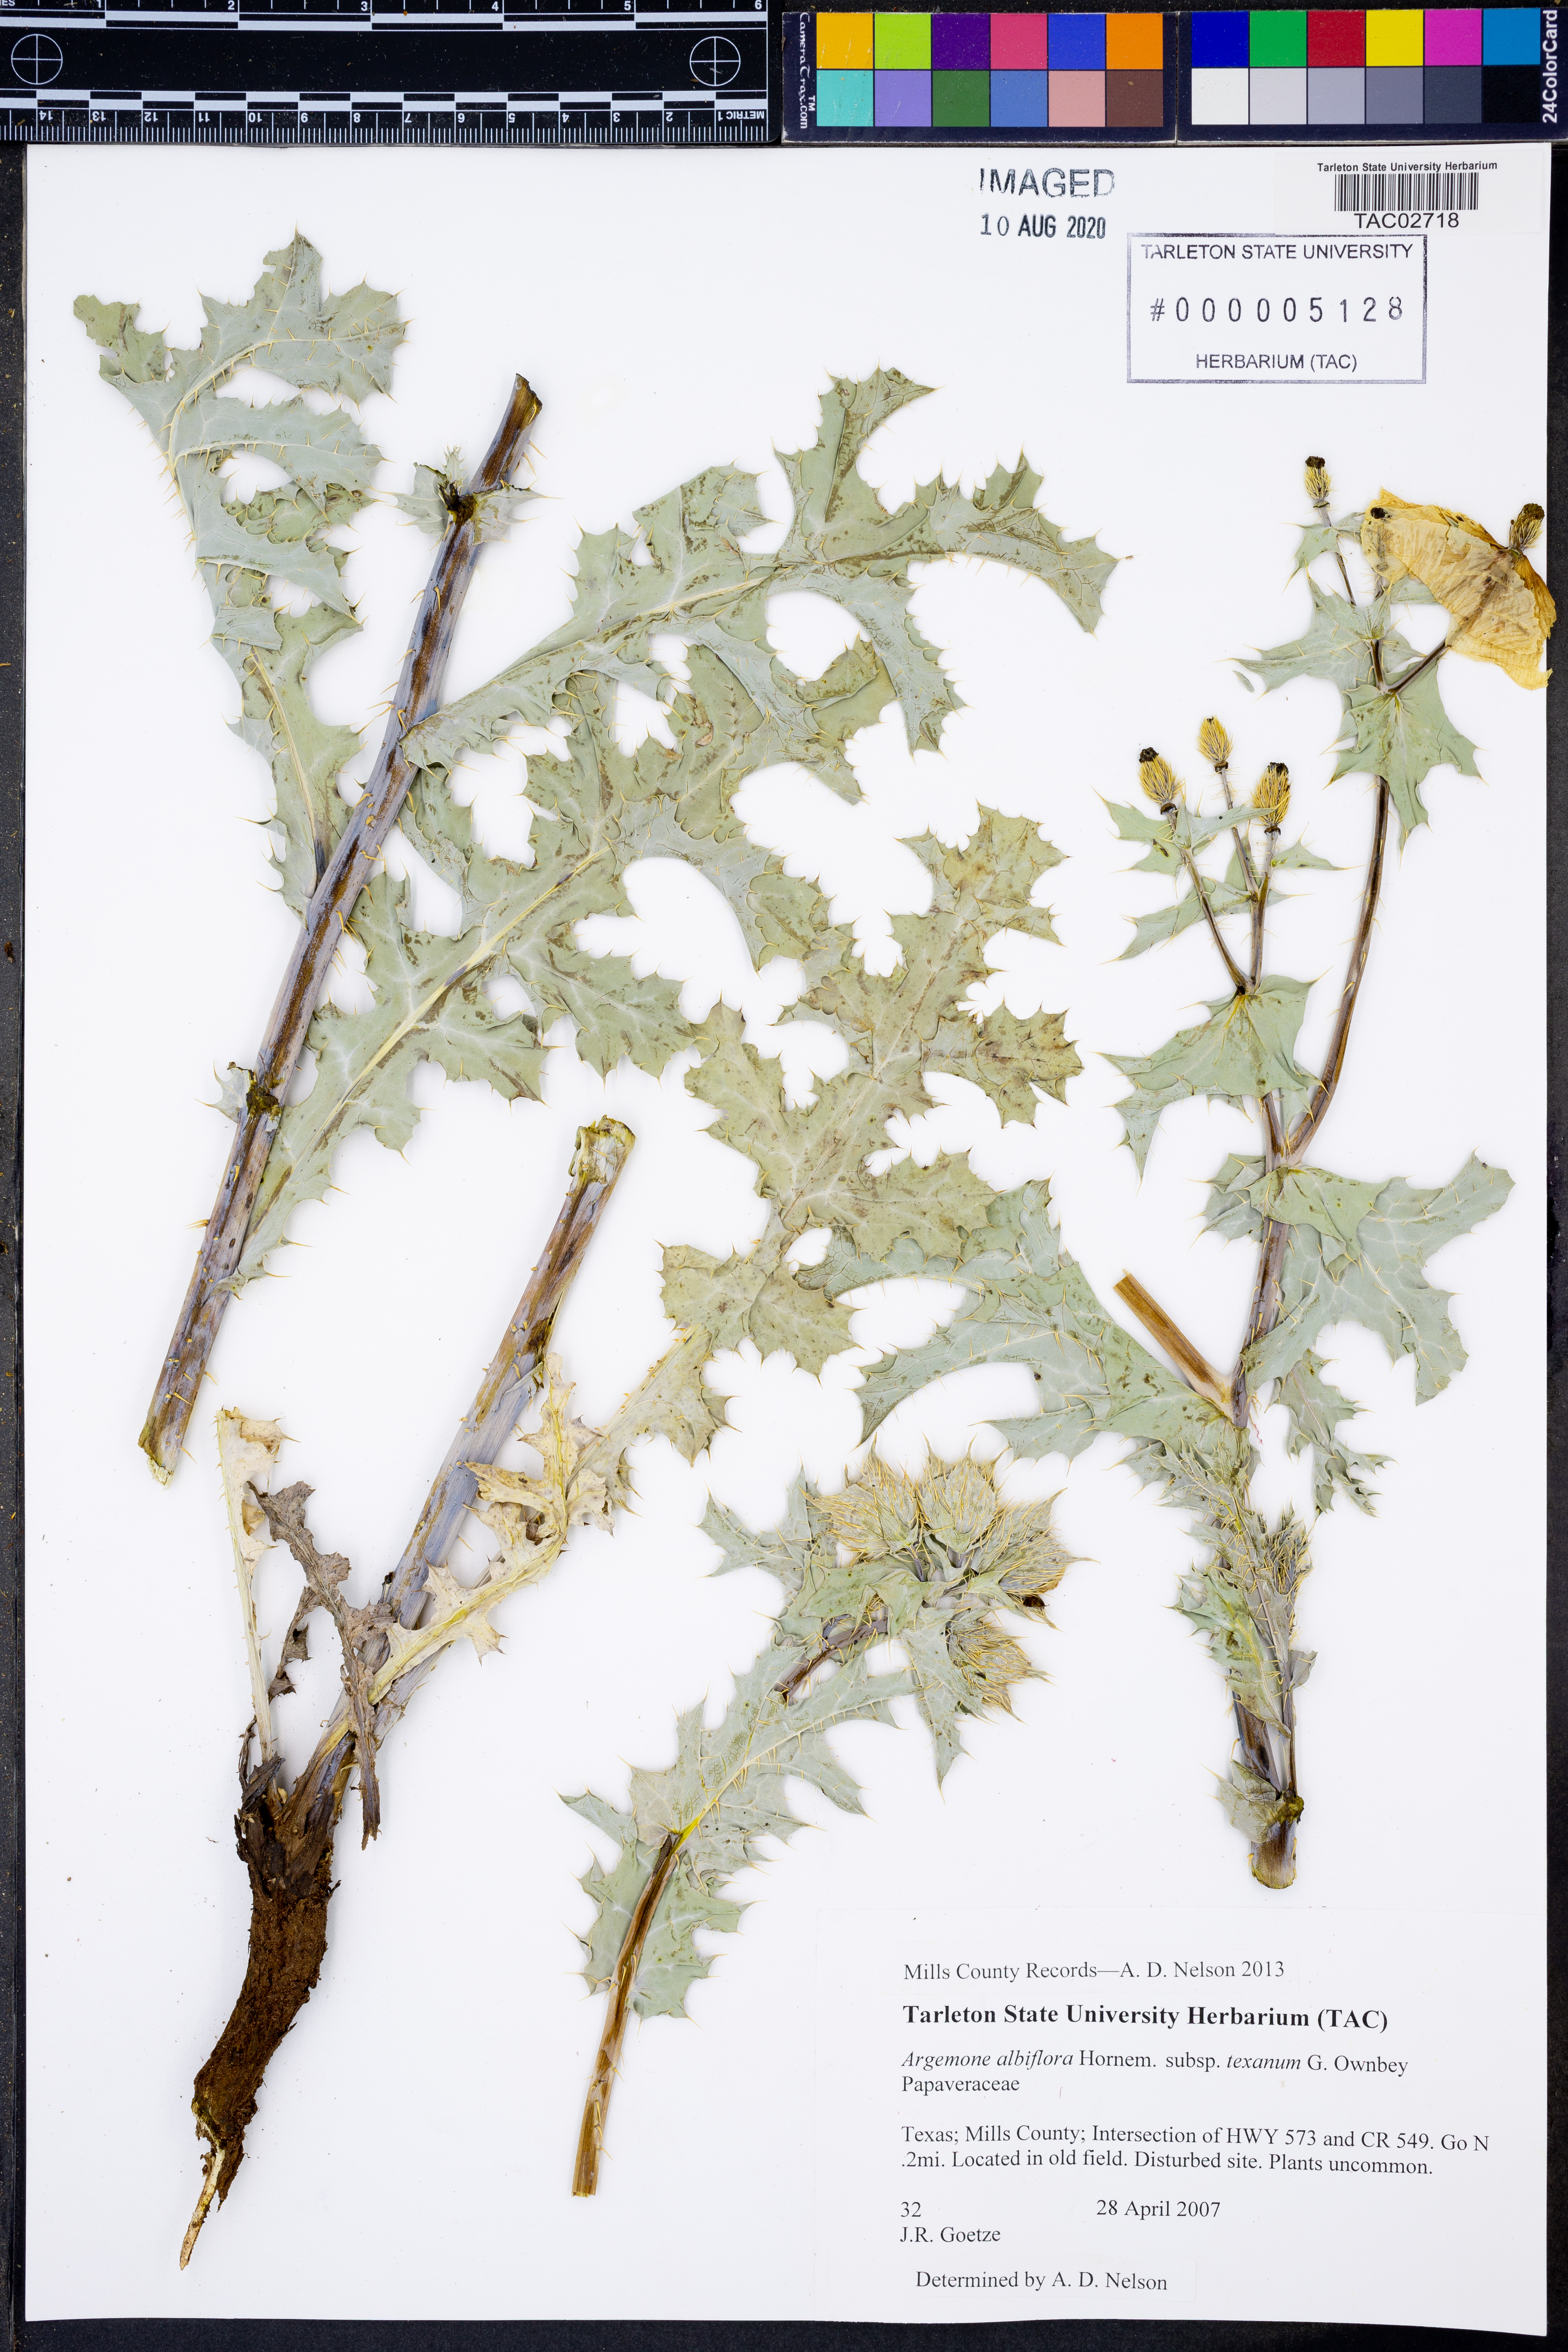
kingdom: Plantae
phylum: Tracheophyta
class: Magnoliopsida
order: Ranunculales
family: Papaveraceae
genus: Argemone
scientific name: Argemone albiflora
